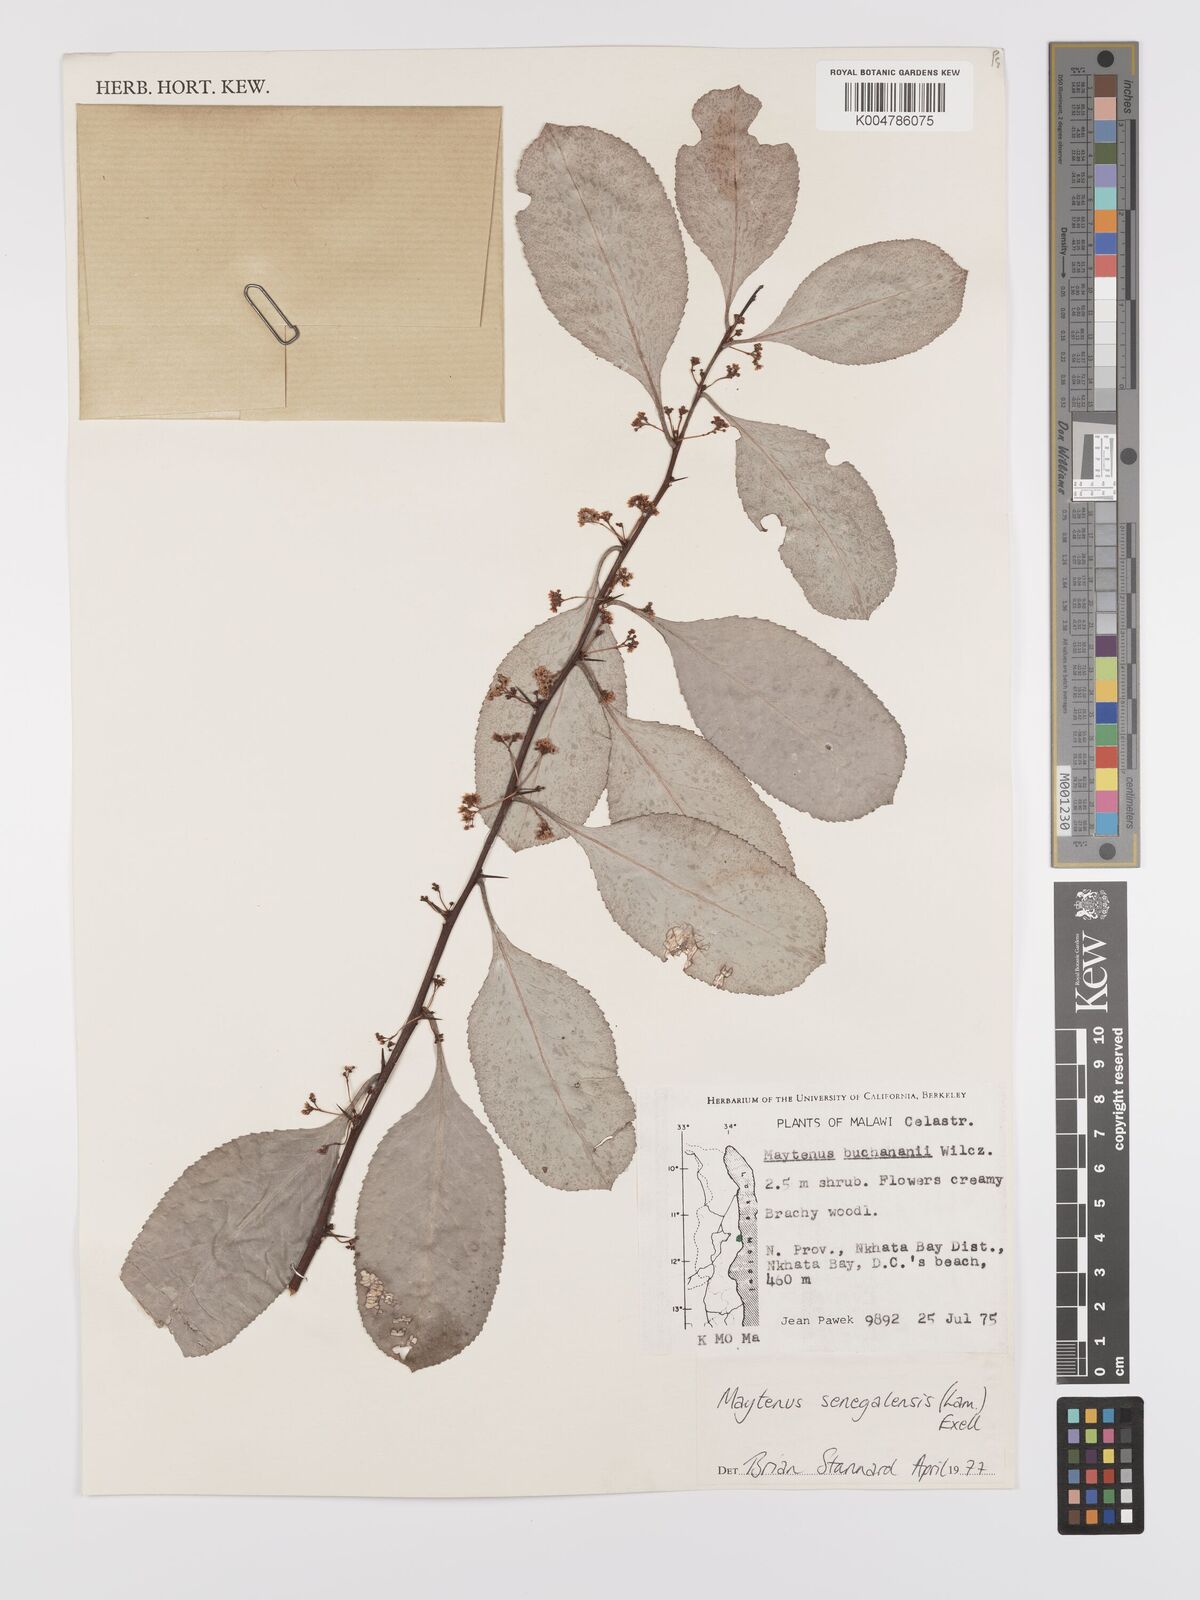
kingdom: Plantae
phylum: Tracheophyta
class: Magnoliopsida
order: Celastrales
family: Celastraceae
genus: Gymnosporia
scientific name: Gymnosporia senegalensis
